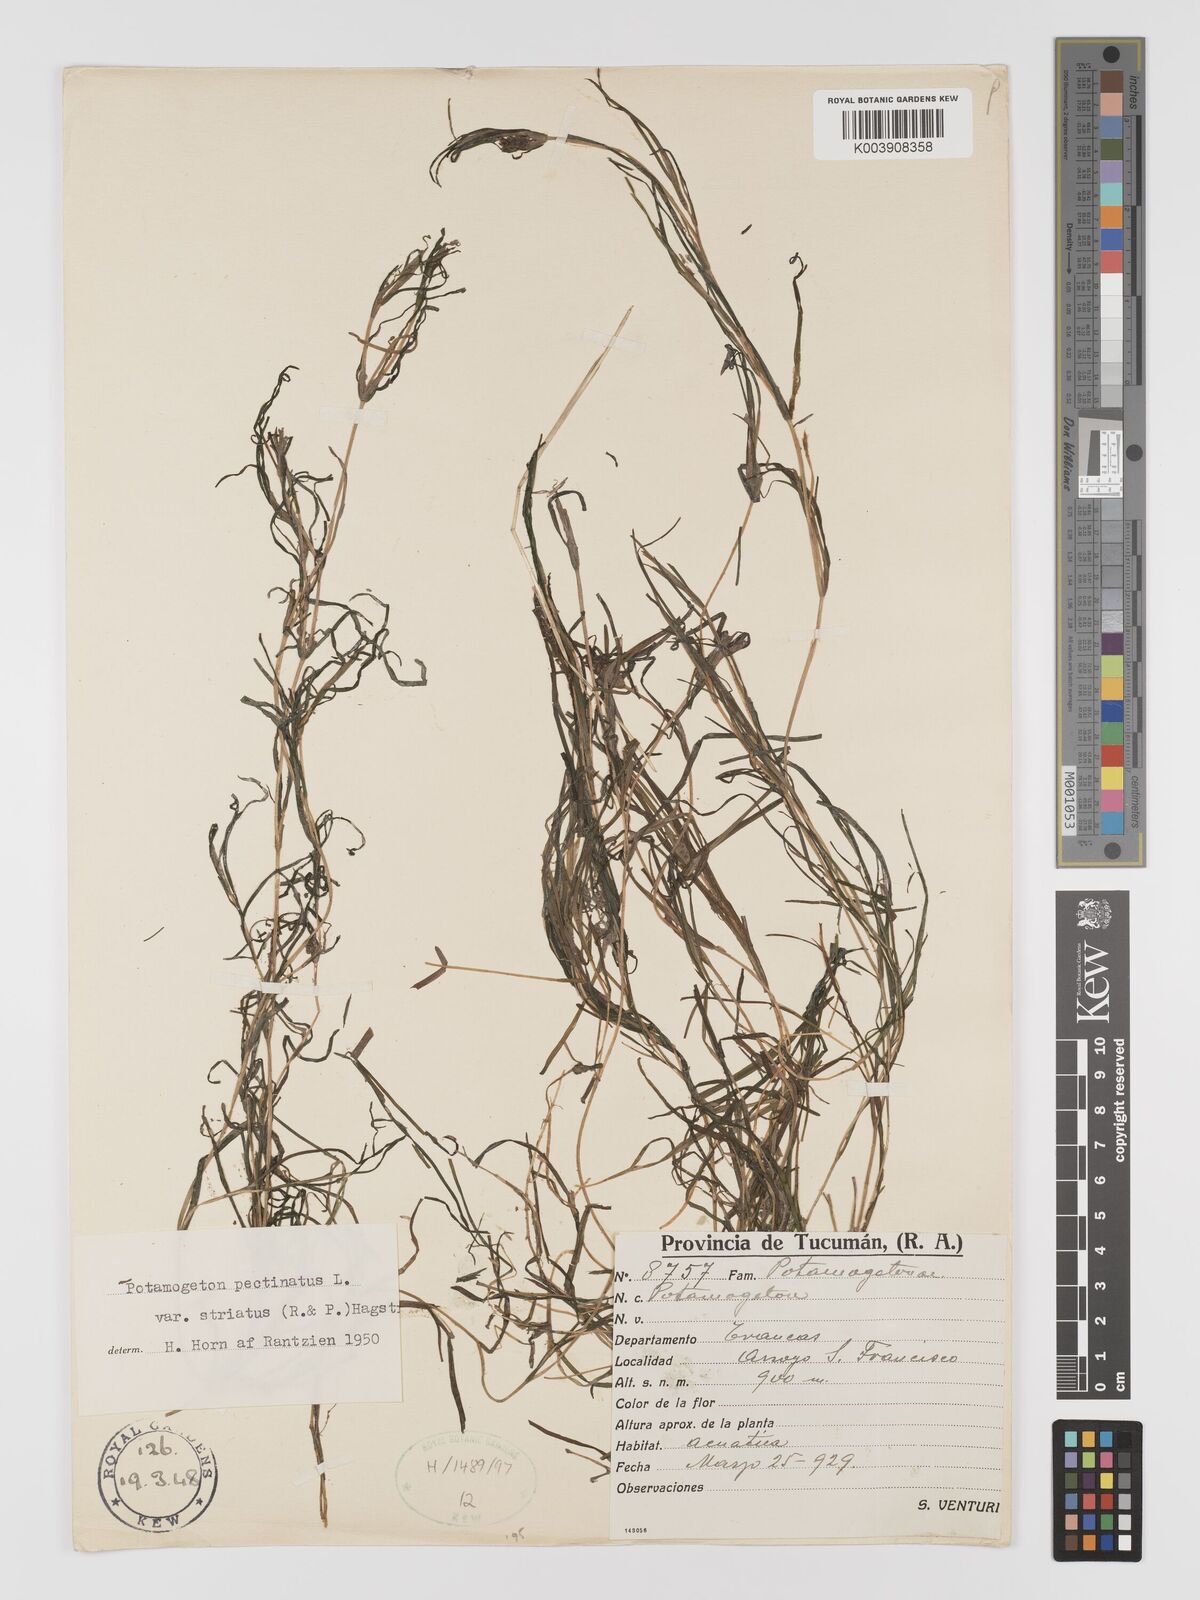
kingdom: Plantae
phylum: Tracheophyta
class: Liliopsida
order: Alismatales
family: Potamogetonaceae
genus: Stuckenia
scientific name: Stuckenia striata
